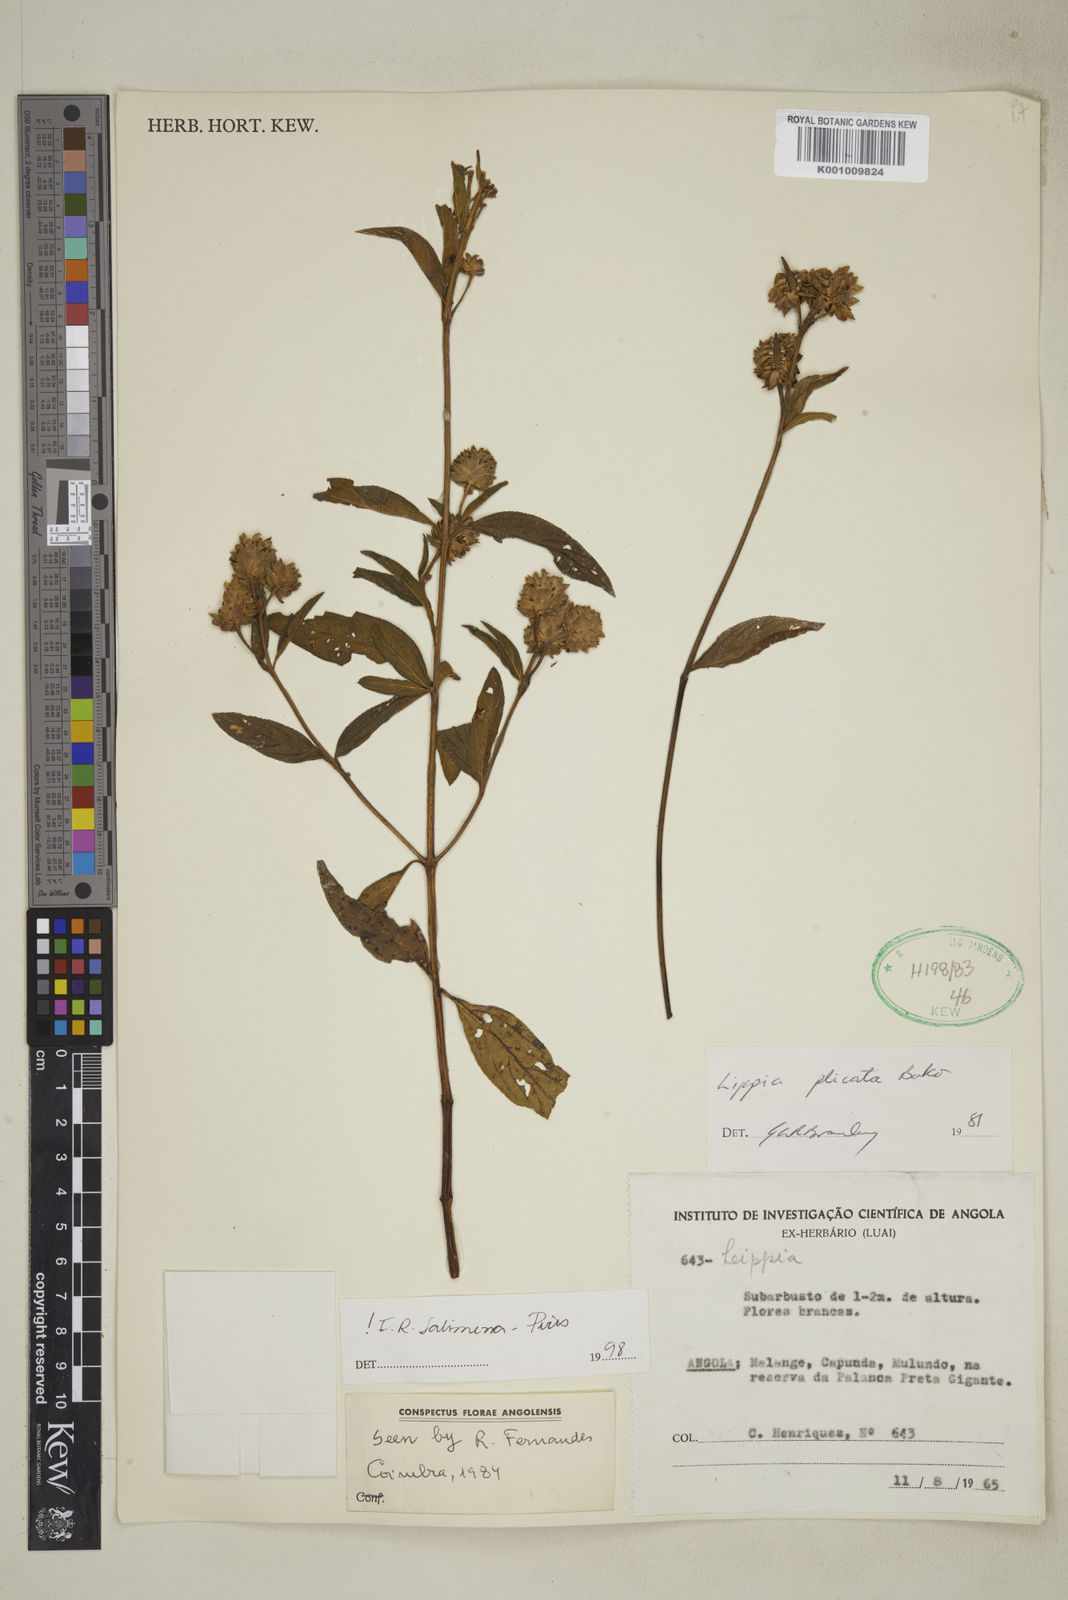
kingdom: Plantae
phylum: Tracheophyta
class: Magnoliopsida
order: Lamiales
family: Verbenaceae
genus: Lippia
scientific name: Lippia plicata
